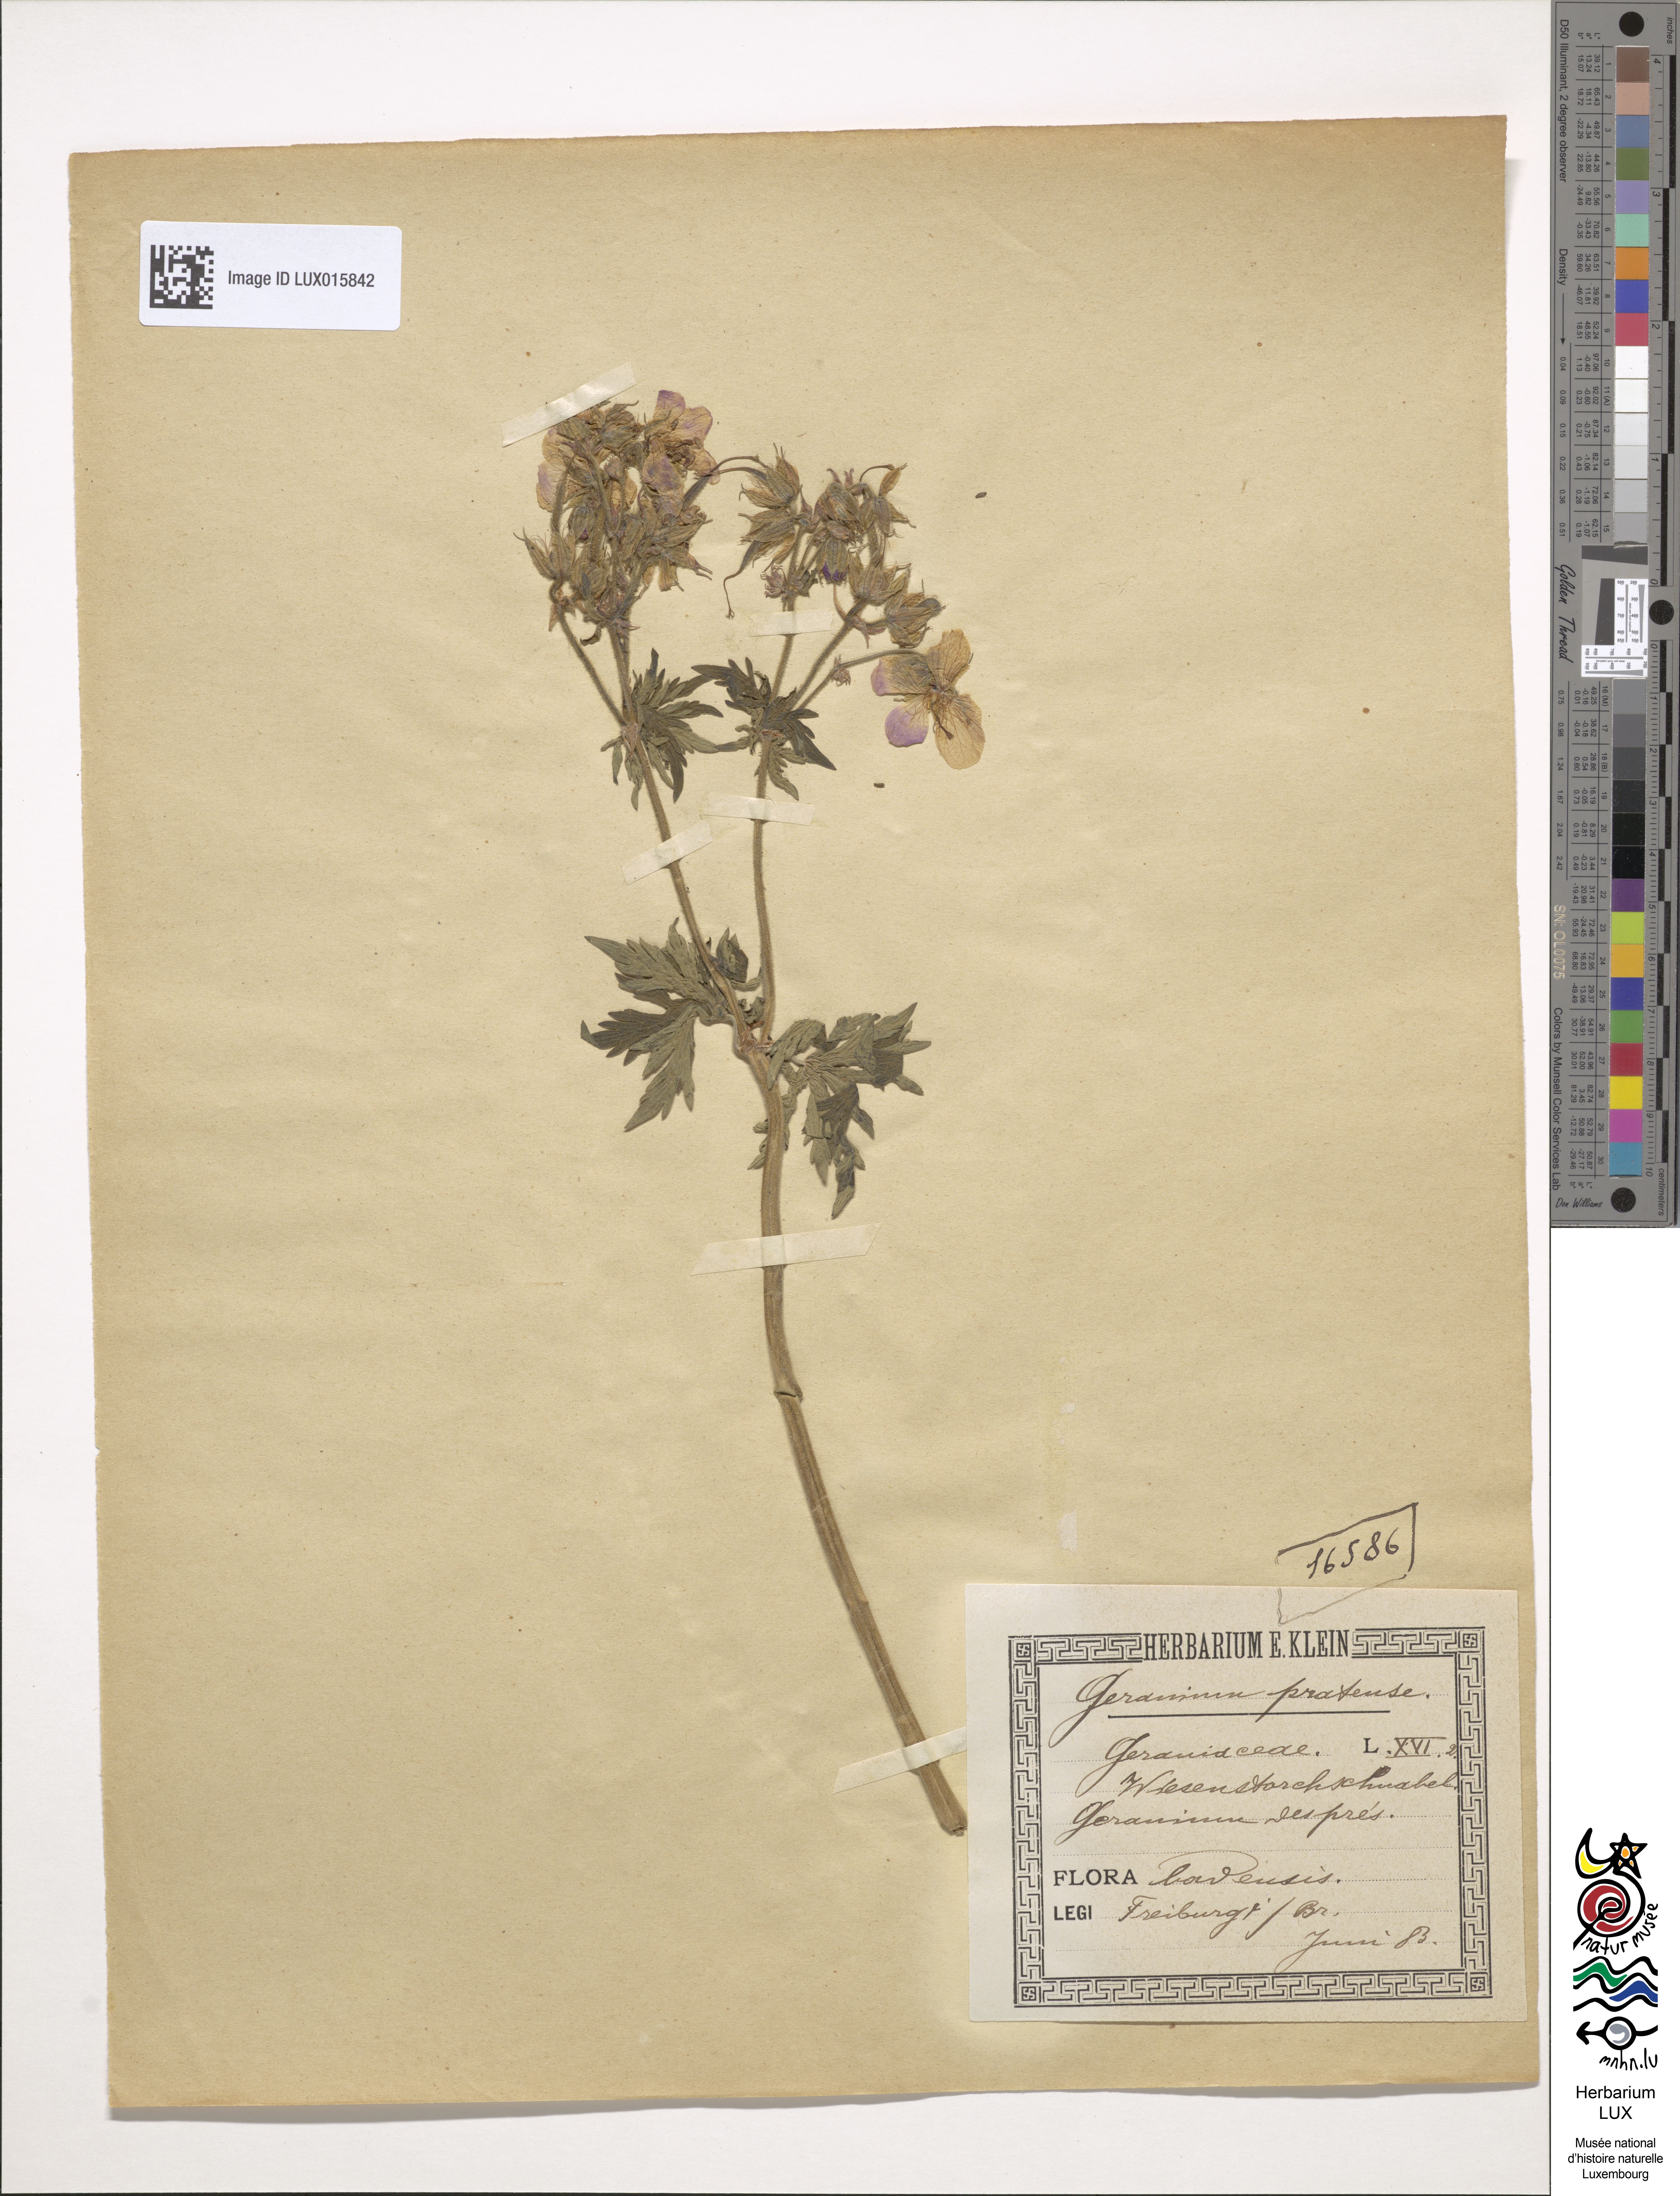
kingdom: Plantae
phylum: Tracheophyta
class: Magnoliopsida
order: Geraniales
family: Geraniaceae
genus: Geranium
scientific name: Geranium pratense
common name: Meadow crane's-bill
